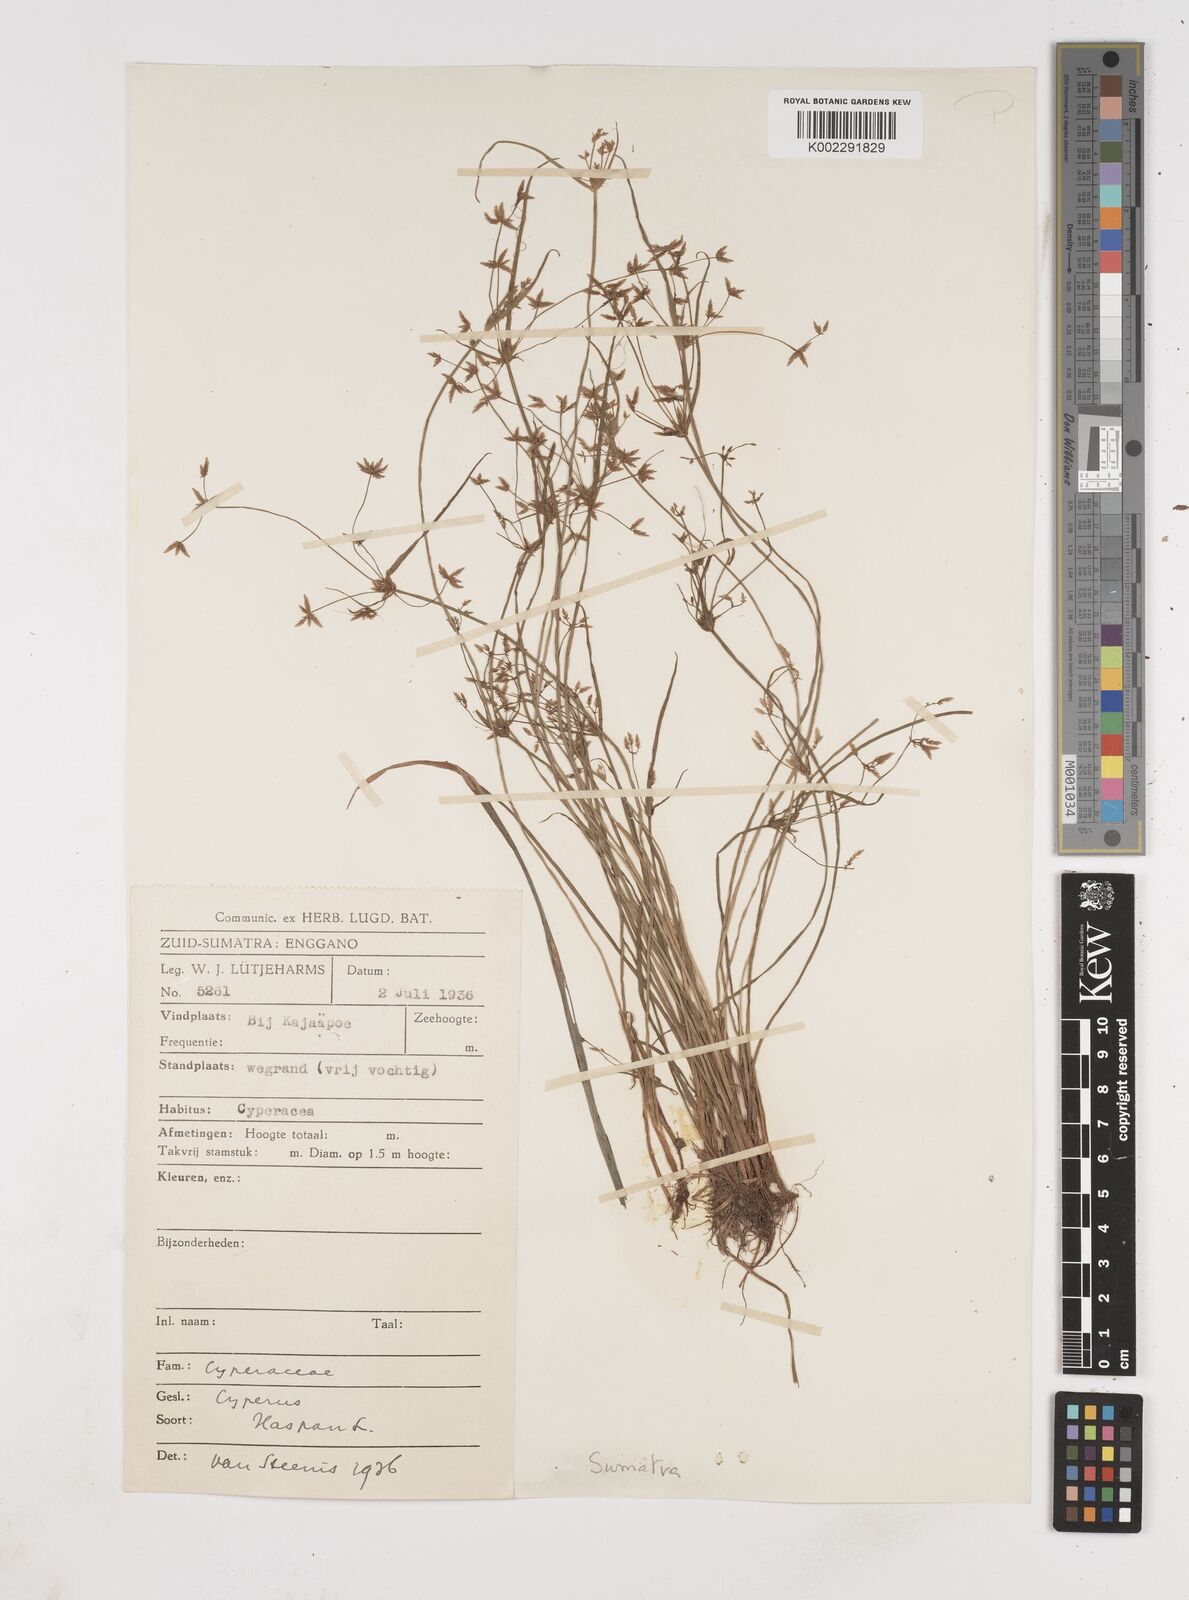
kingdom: Plantae
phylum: Tracheophyta
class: Liliopsida
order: Poales
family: Cyperaceae
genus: Cyperus
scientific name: Cyperus haspan
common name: Haspan flatsedge
